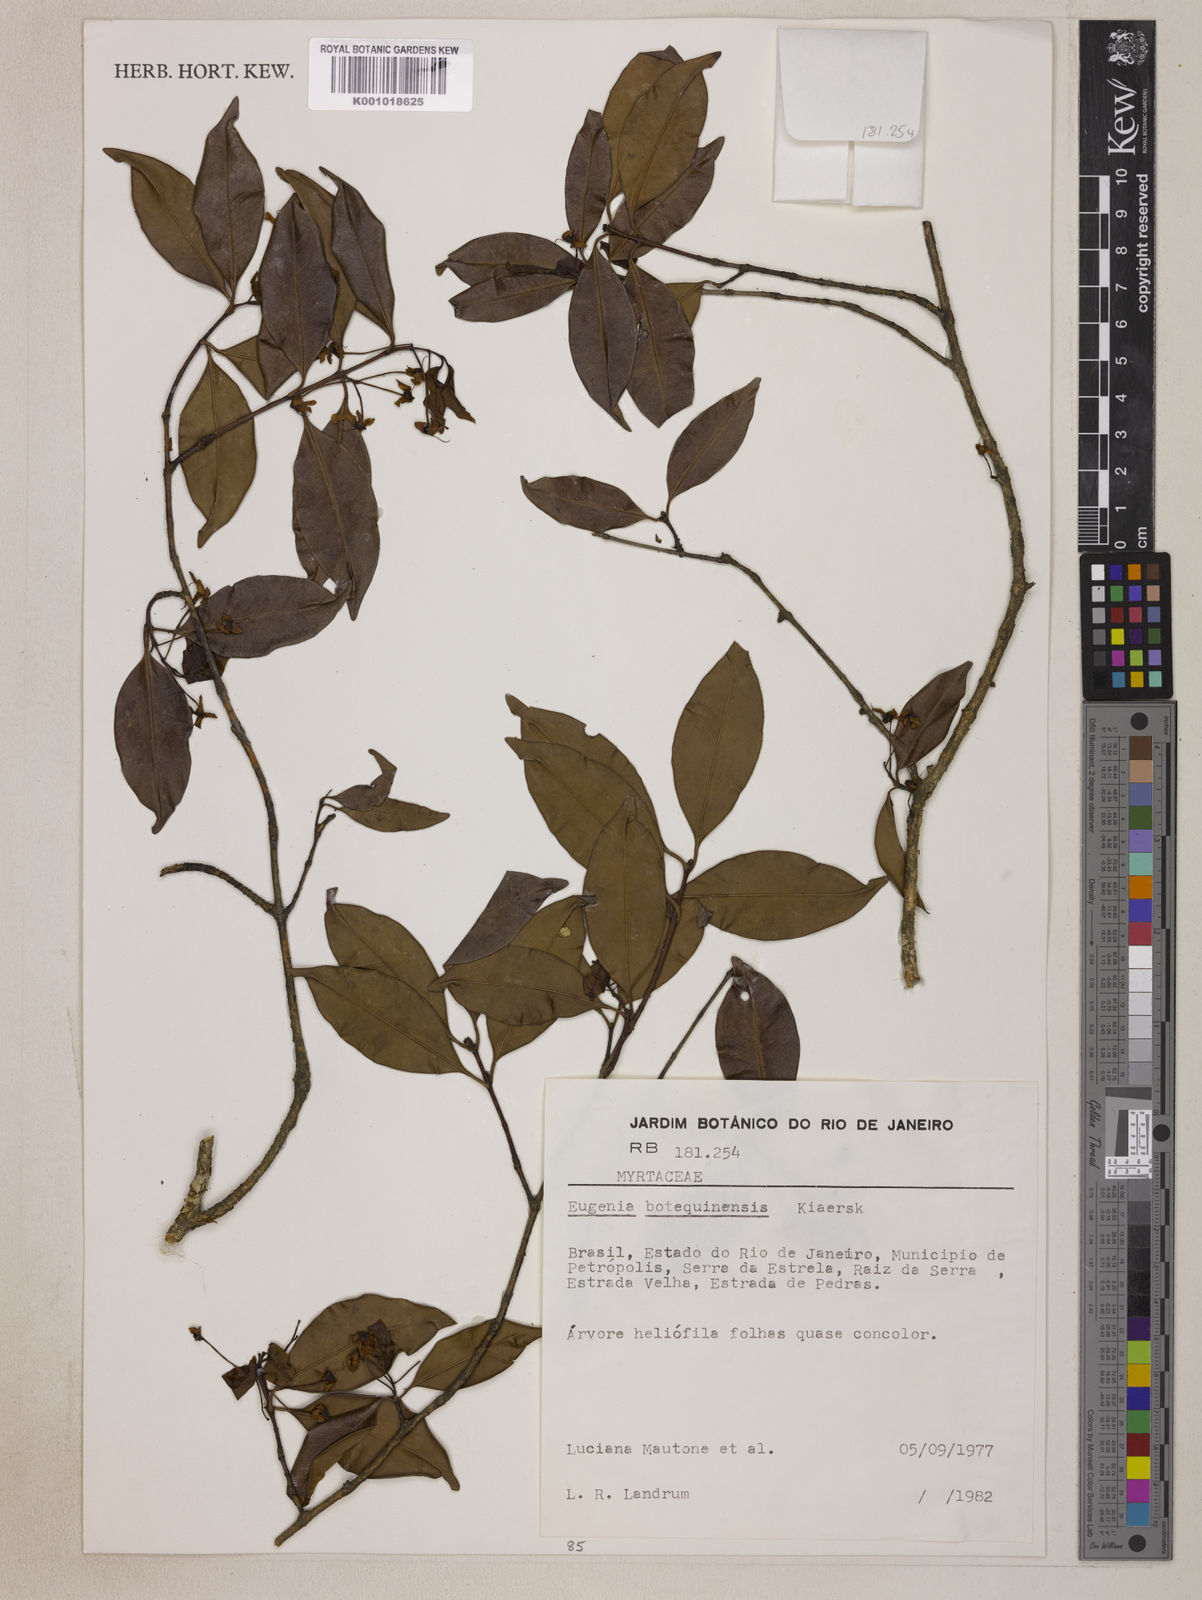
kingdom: Plantae
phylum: Tracheophyta
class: Magnoliopsida
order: Myrtales
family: Myrtaceae
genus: Eugenia
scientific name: Eugenia botequimensis
